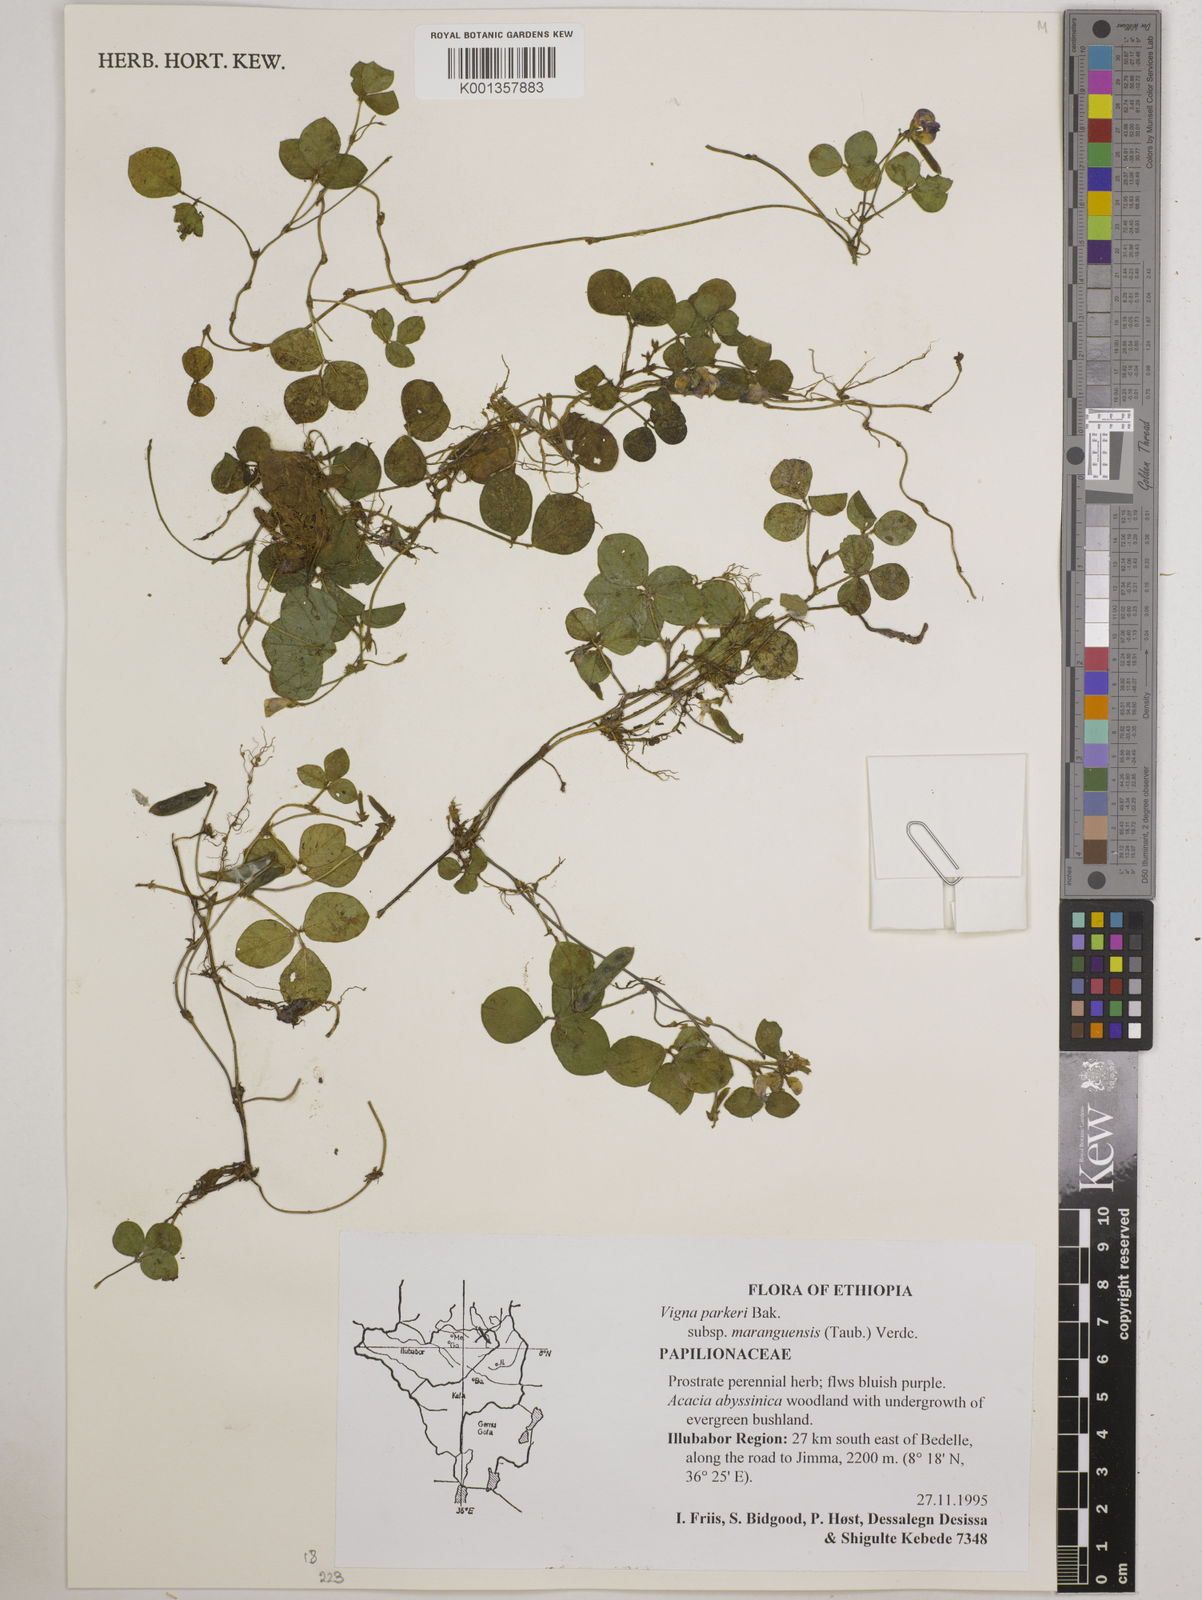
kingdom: Plantae
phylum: Tracheophyta
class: Magnoliopsida
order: Fabales
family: Fabaceae
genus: Vigna
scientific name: Vigna
